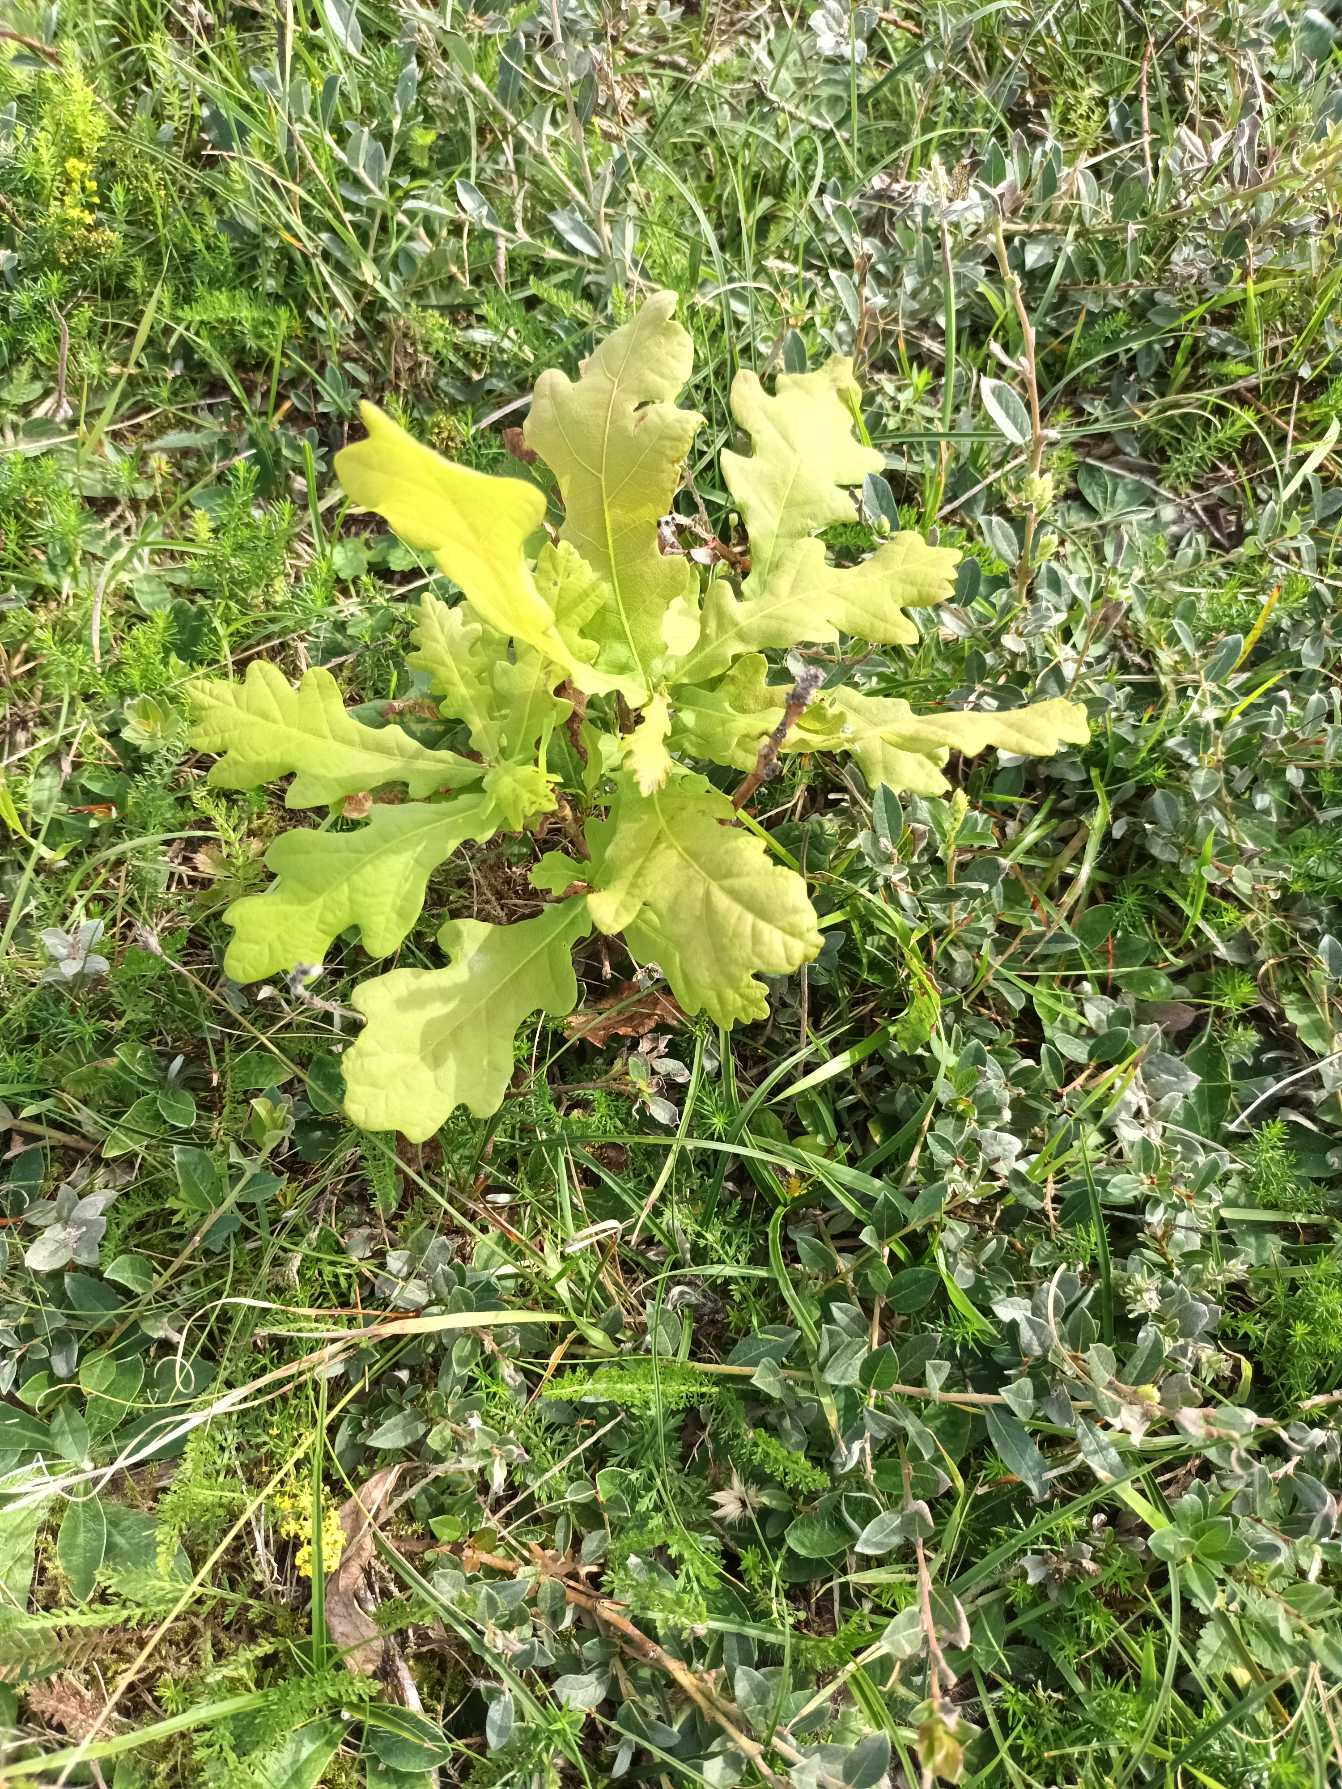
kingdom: Plantae
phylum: Tracheophyta
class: Magnoliopsida
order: Fagales
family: Fagaceae
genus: Quercus
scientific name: Quercus robur
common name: Stilk-eg/almindelig eg
